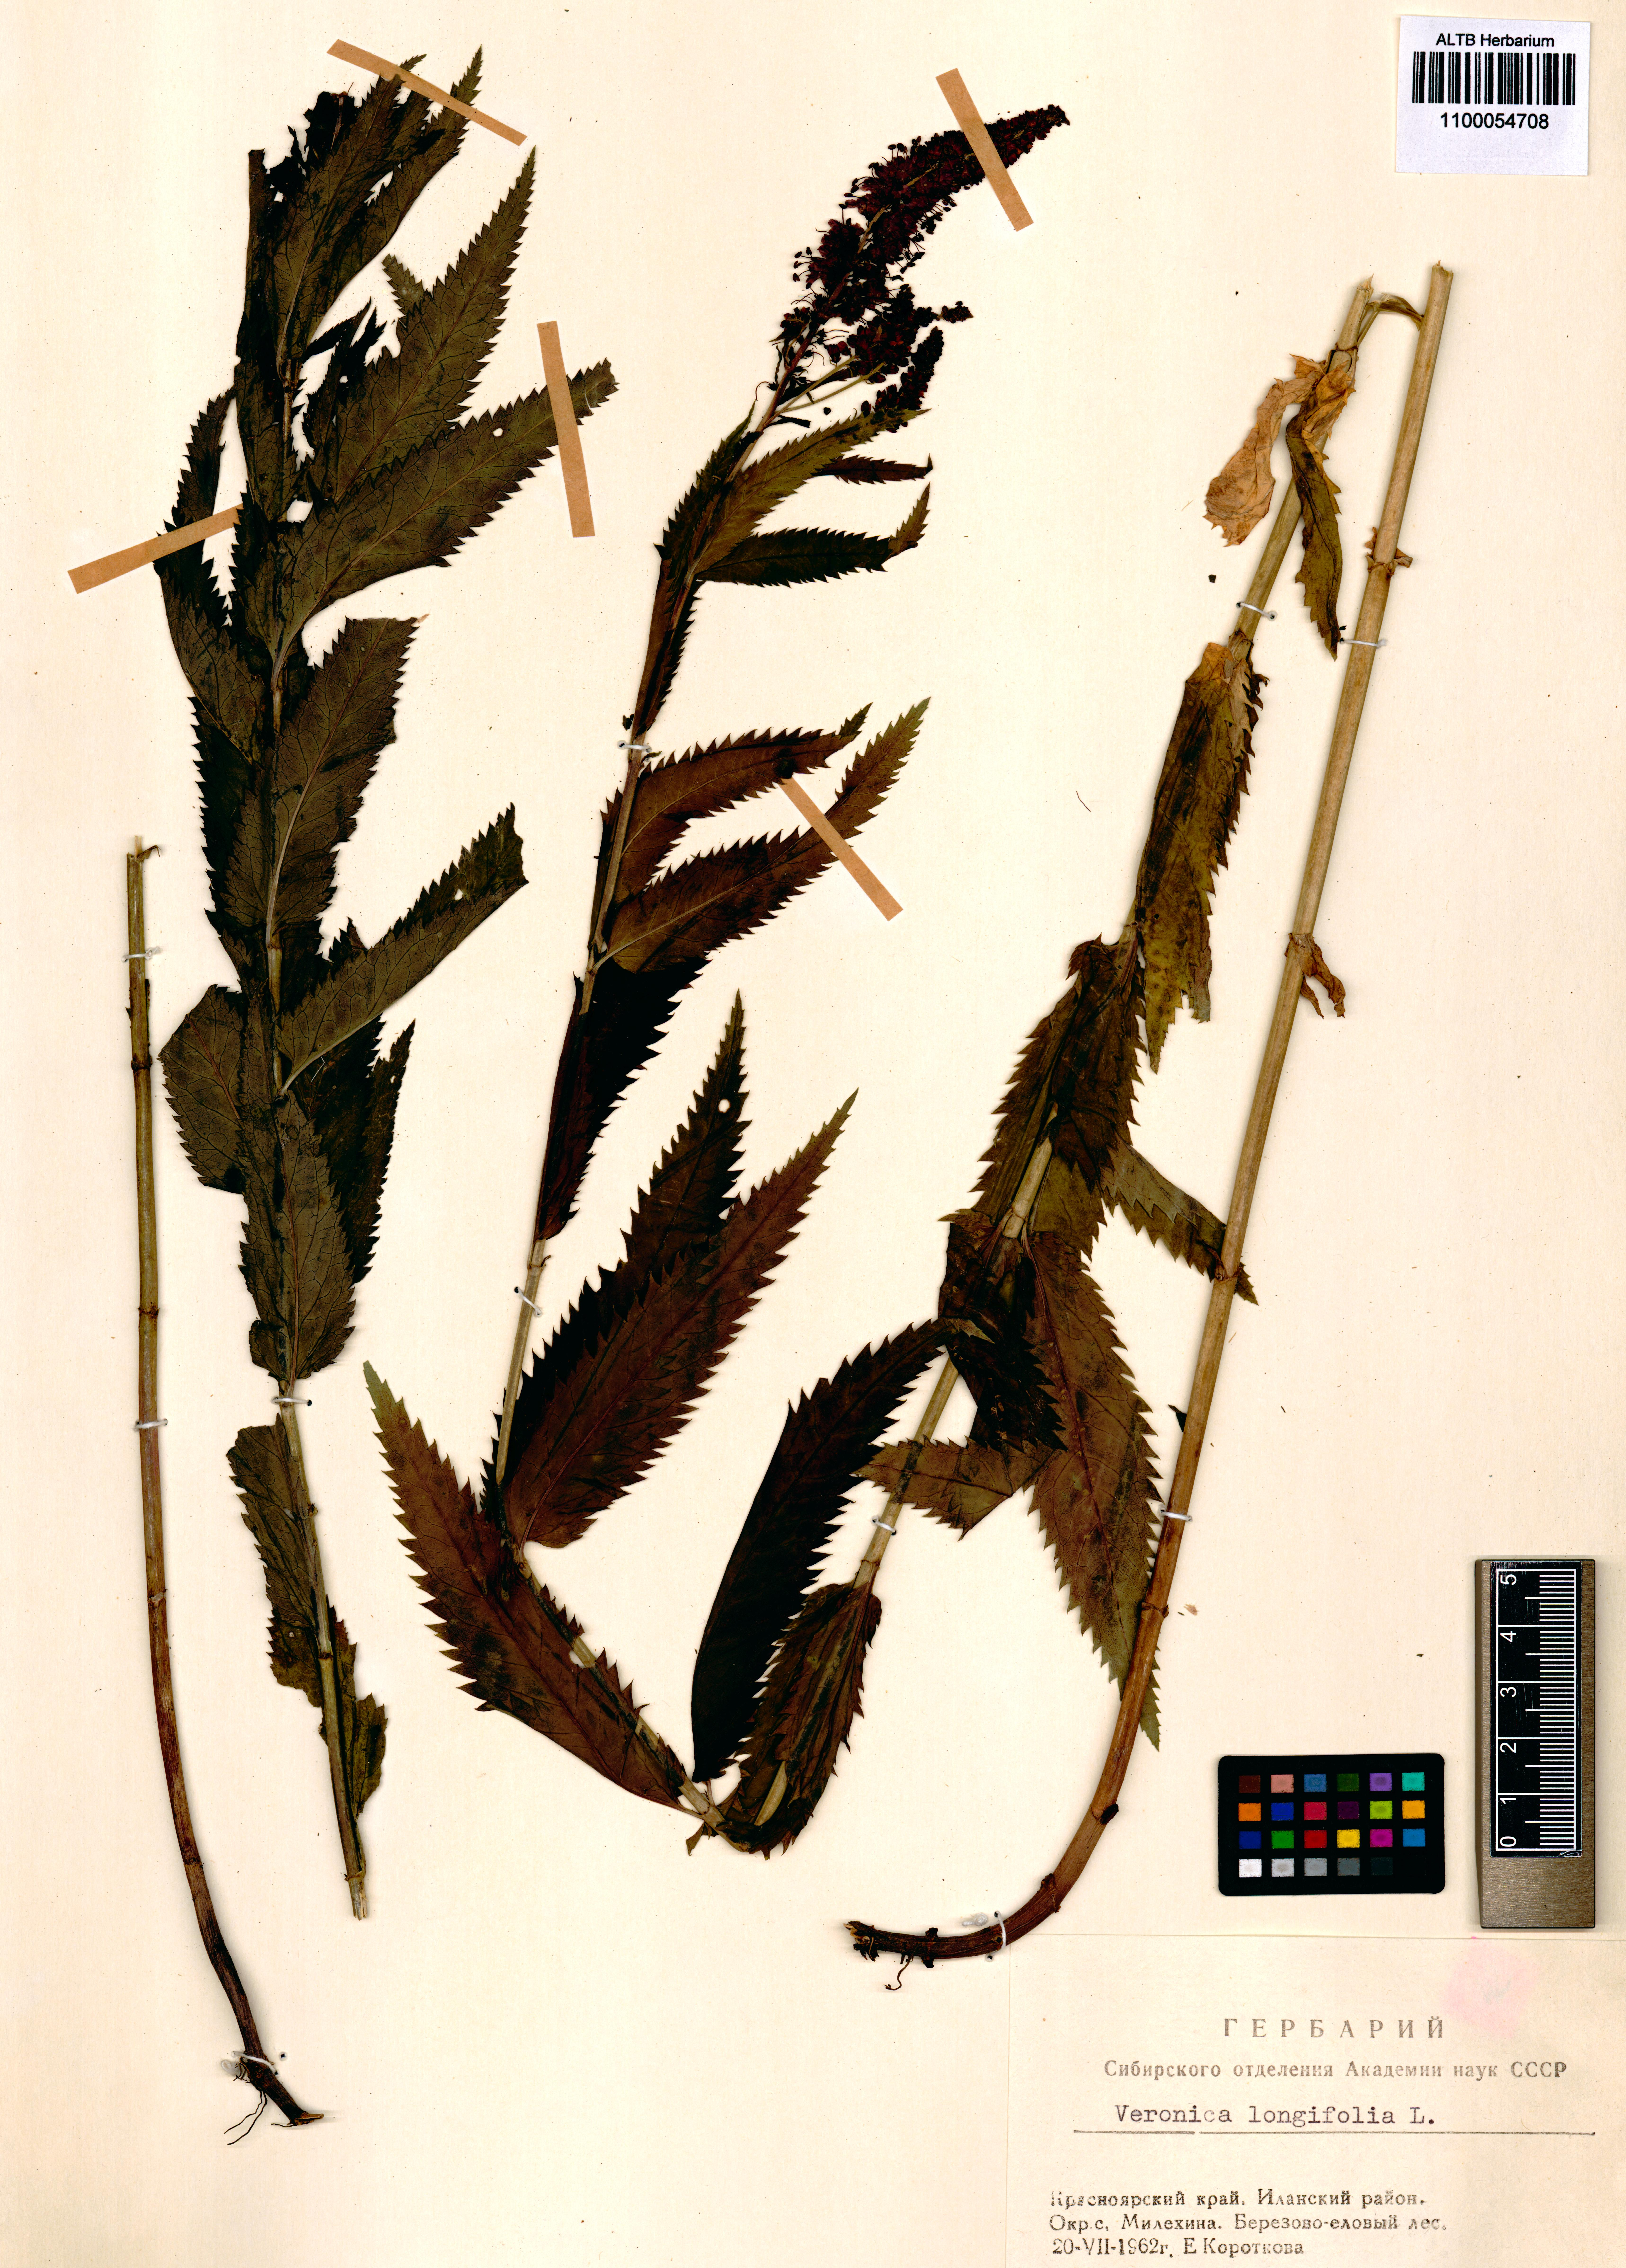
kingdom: Plantae
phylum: Tracheophyta
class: Magnoliopsida
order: Lamiales
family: Plantaginaceae
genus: Veronica
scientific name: Veronica longifolia
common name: Garden speedwell
